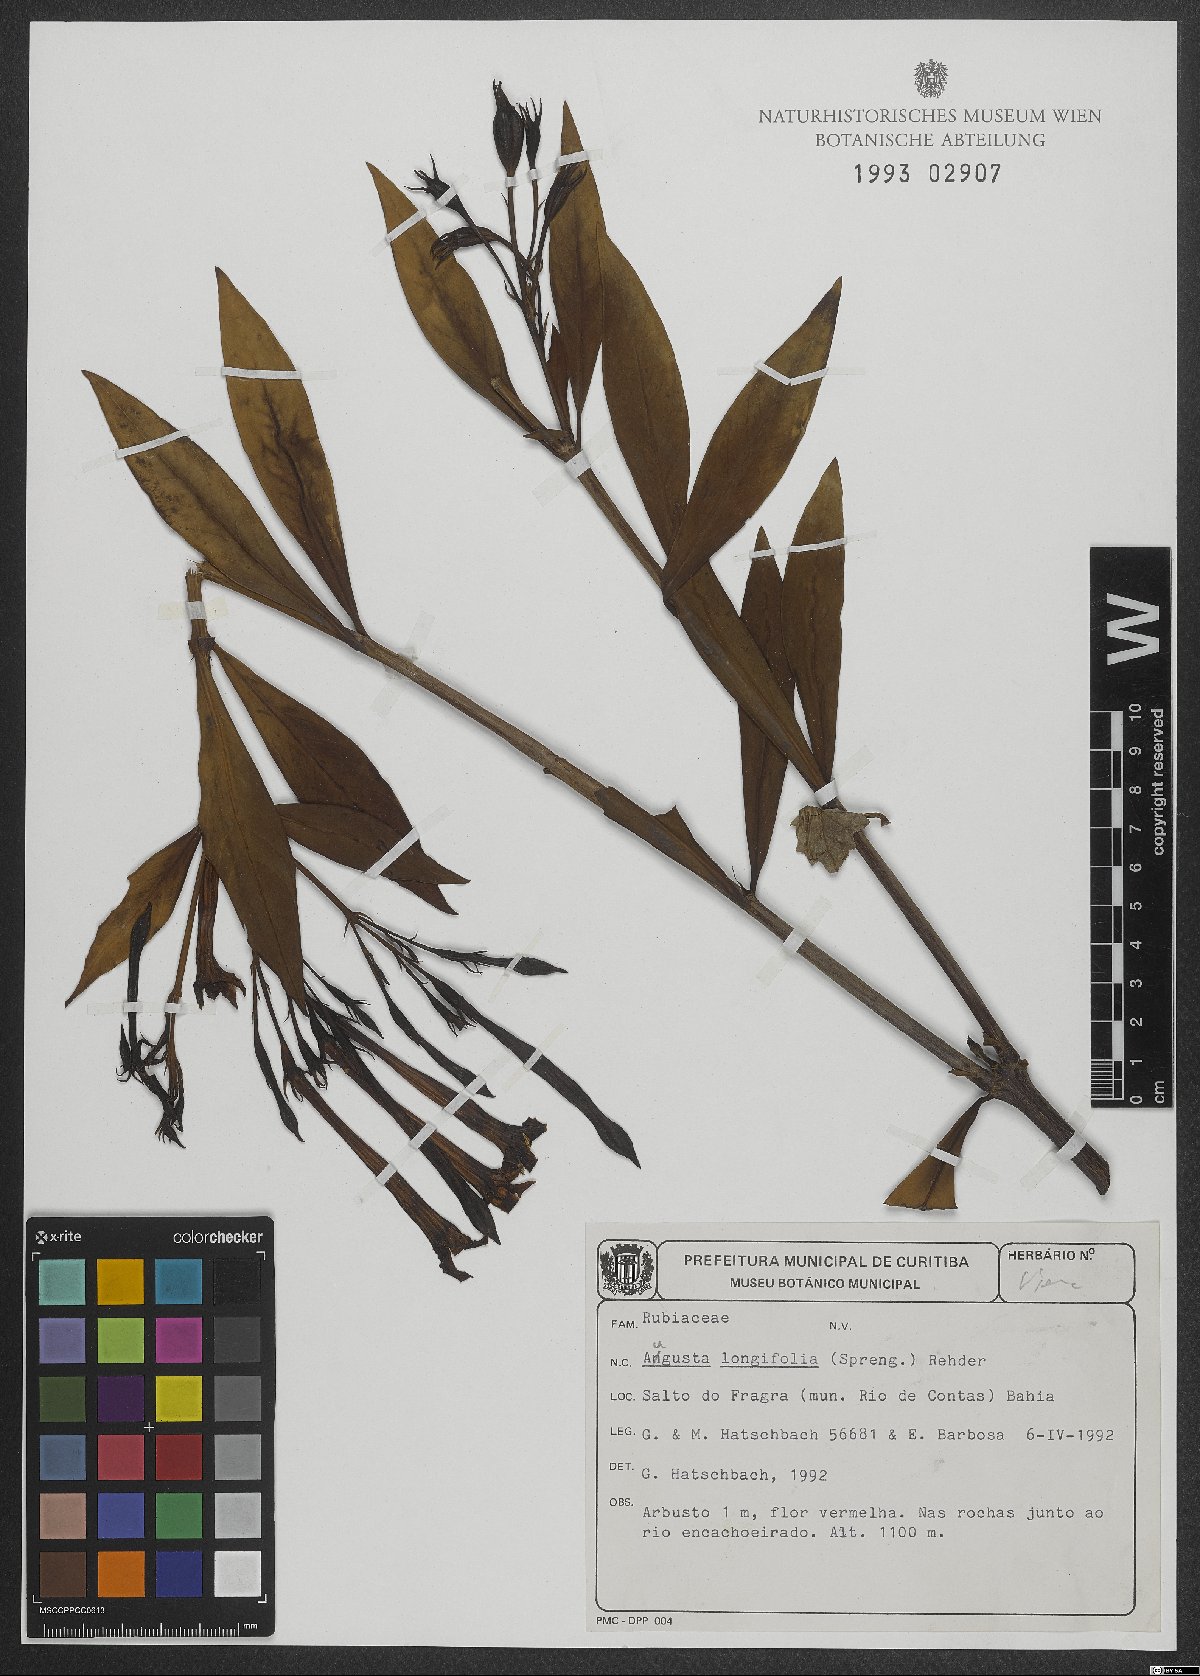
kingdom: Plantae
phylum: Tracheophyta
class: Magnoliopsida
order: Gentianales
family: Rubiaceae
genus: Augusta
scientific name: Augusta longifolia
